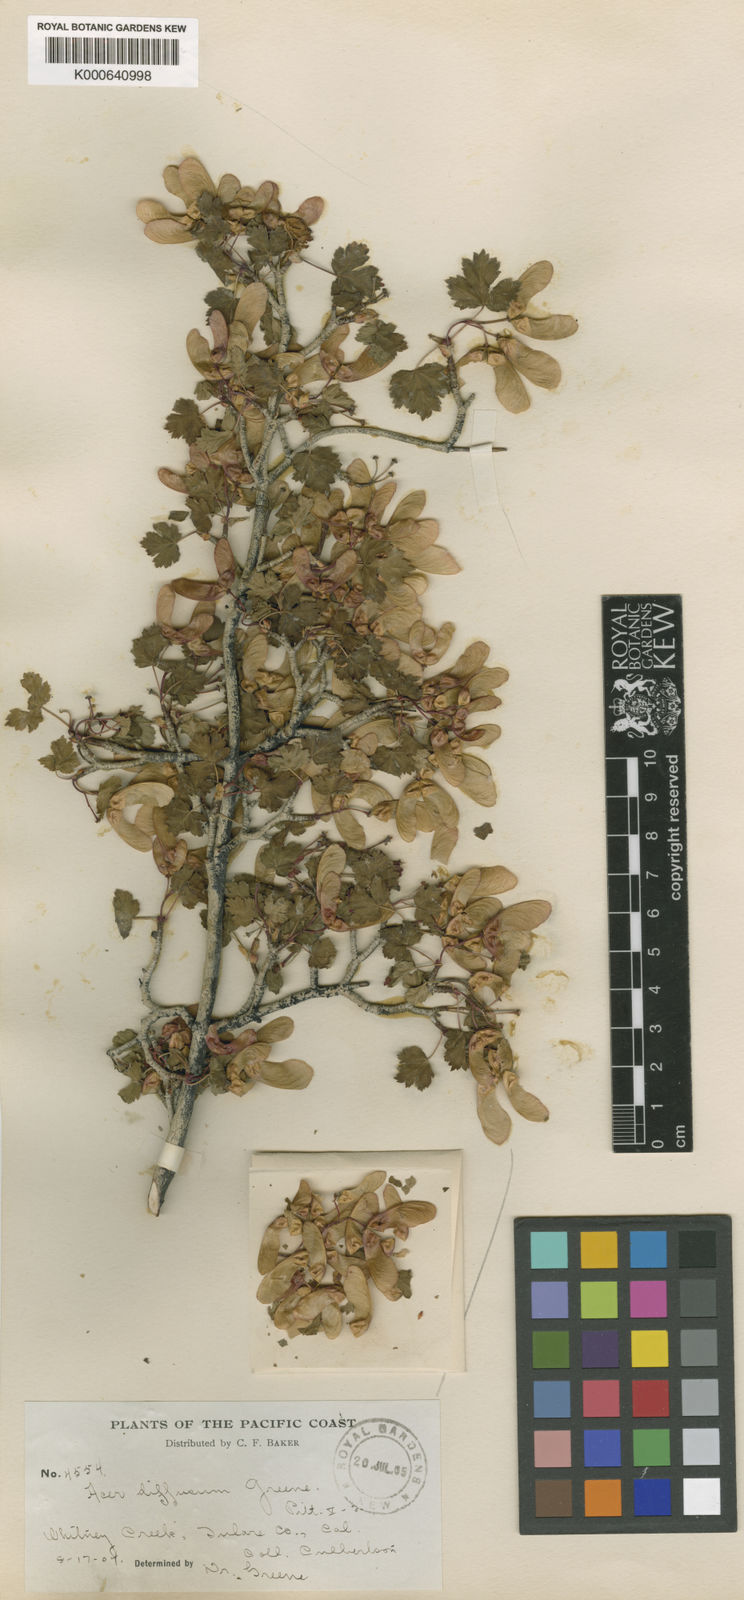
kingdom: Plantae
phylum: Tracheophyta
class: Magnoliopsida
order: Sapindales
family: Sapindaceae
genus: Acer
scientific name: Acer glabrum
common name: Rocky mountain maple
